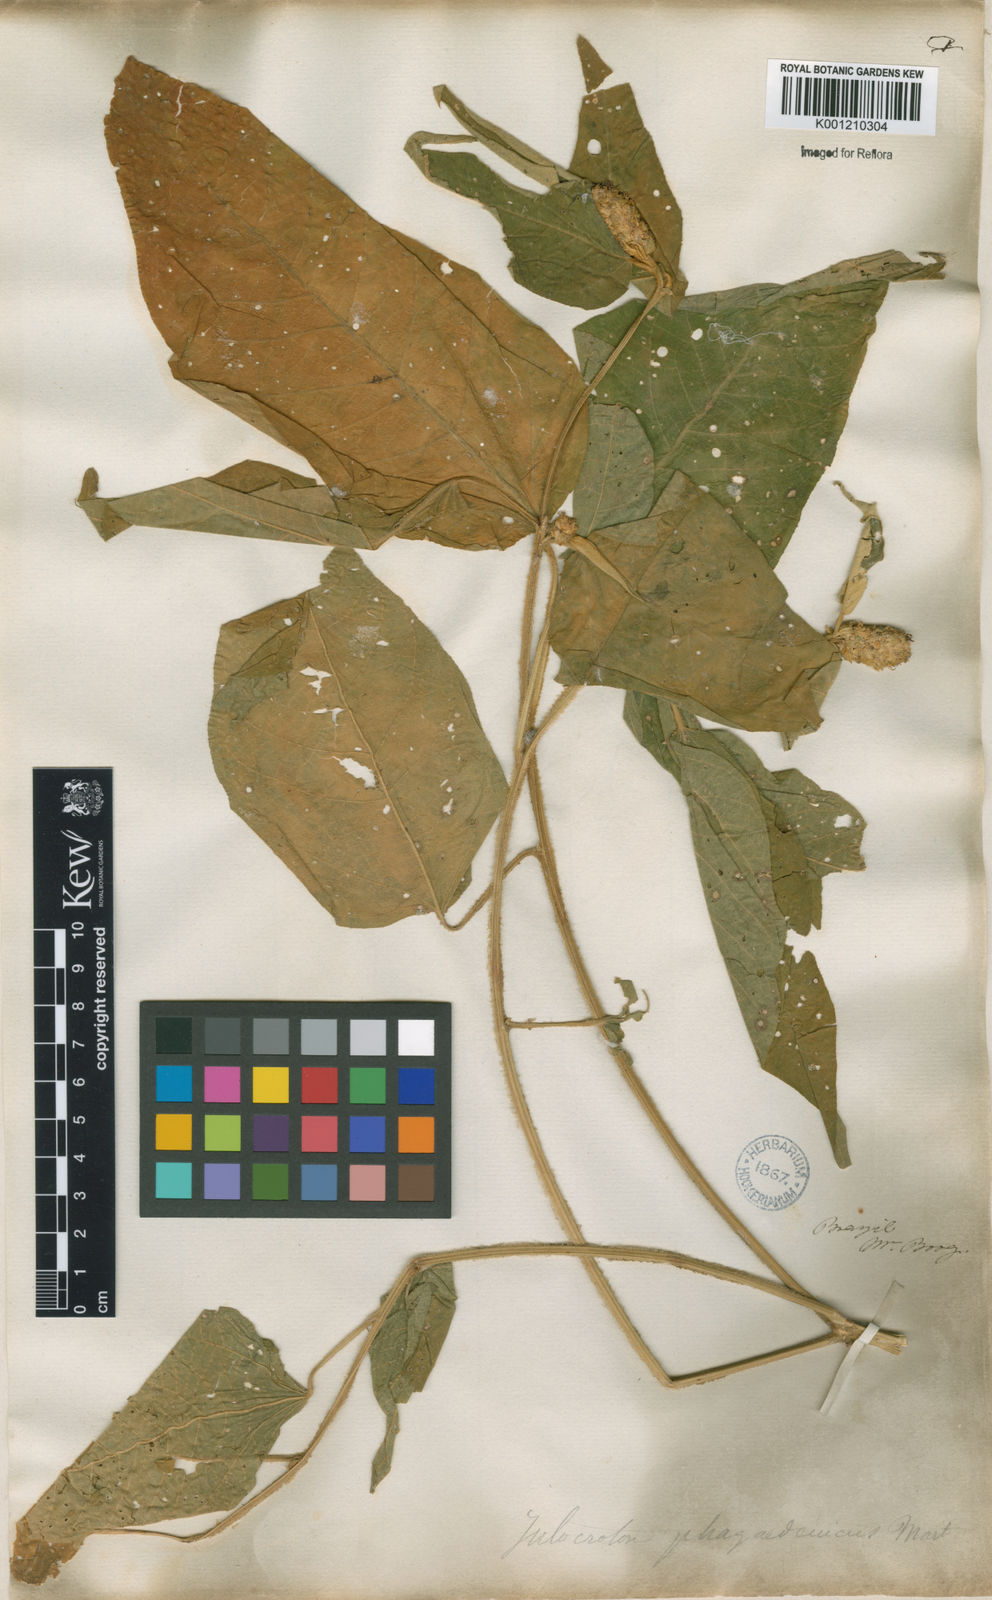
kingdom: Plantae
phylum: Tracheophyta
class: Magnoliopsida
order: Malpighiales
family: Euphorbiaceae
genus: Croton
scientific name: Croton triqueter
